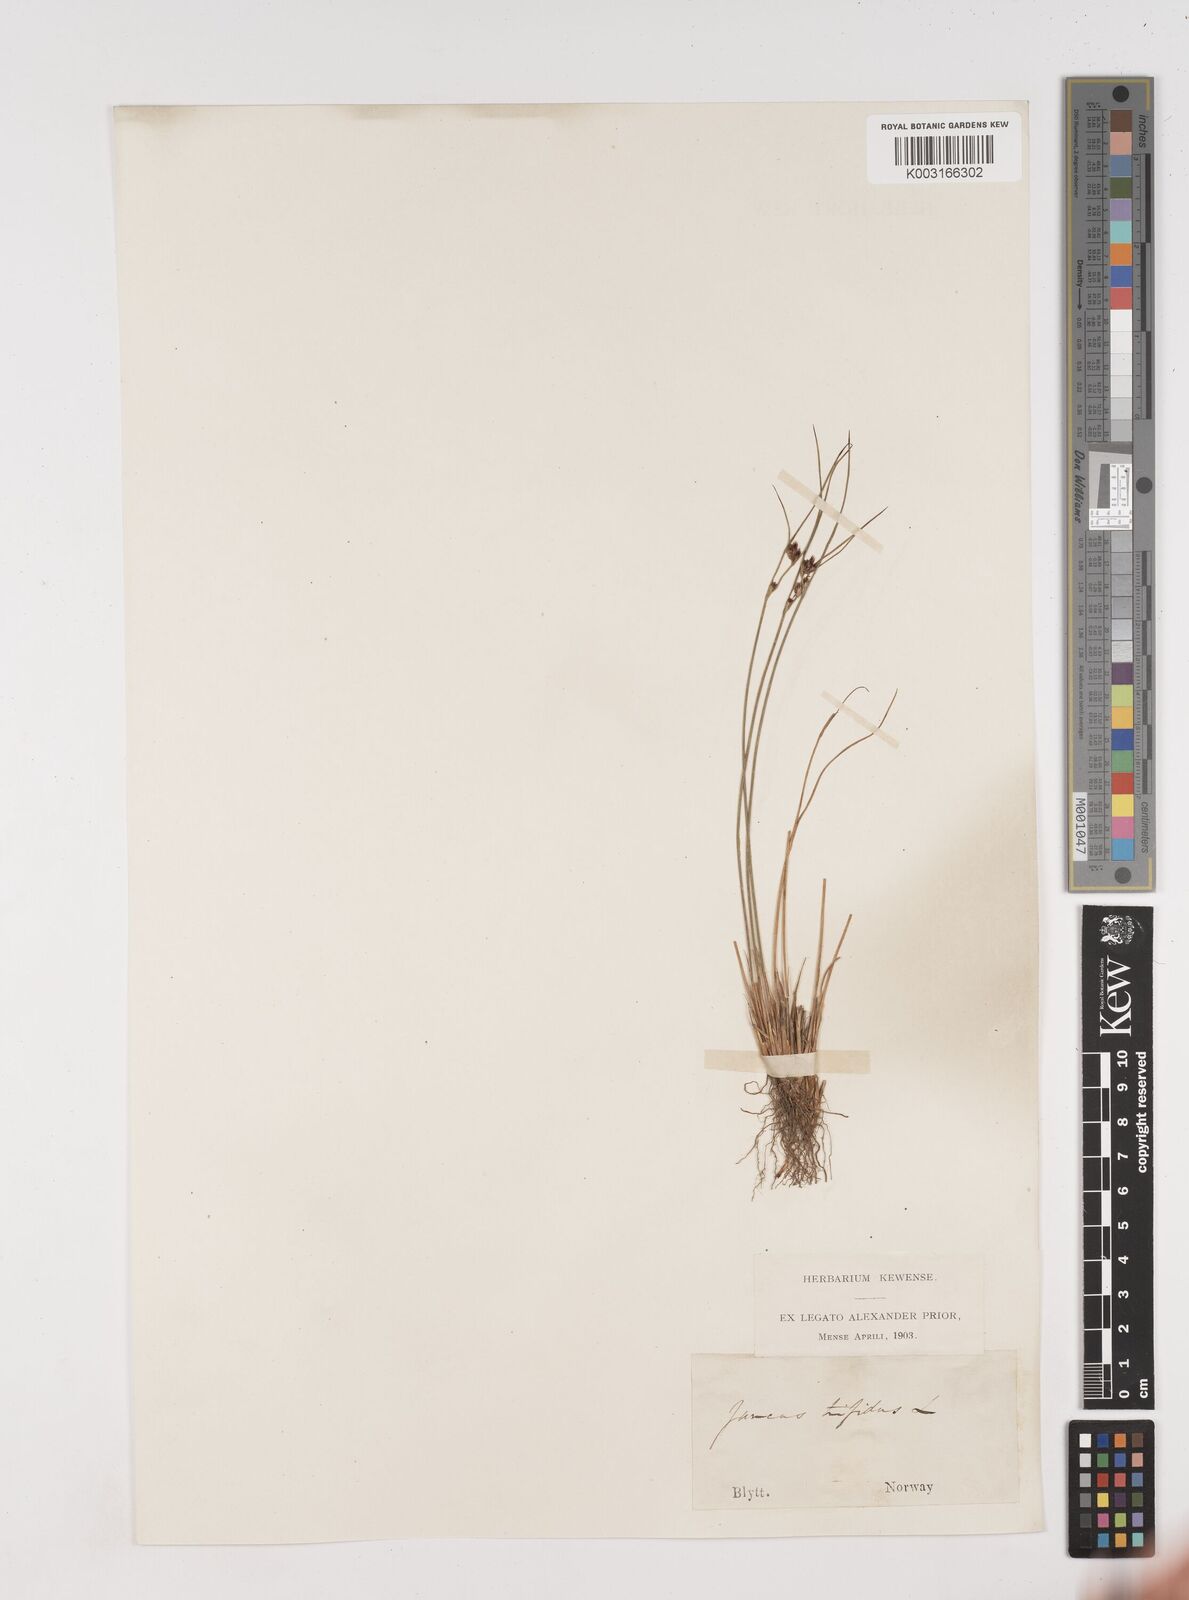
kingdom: Plantae
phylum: Tracheophyta
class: Liliopsida
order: Poales
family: Juncaceae
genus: Oreojuncus
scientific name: Oreojuncus trifidus
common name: Highland rush
